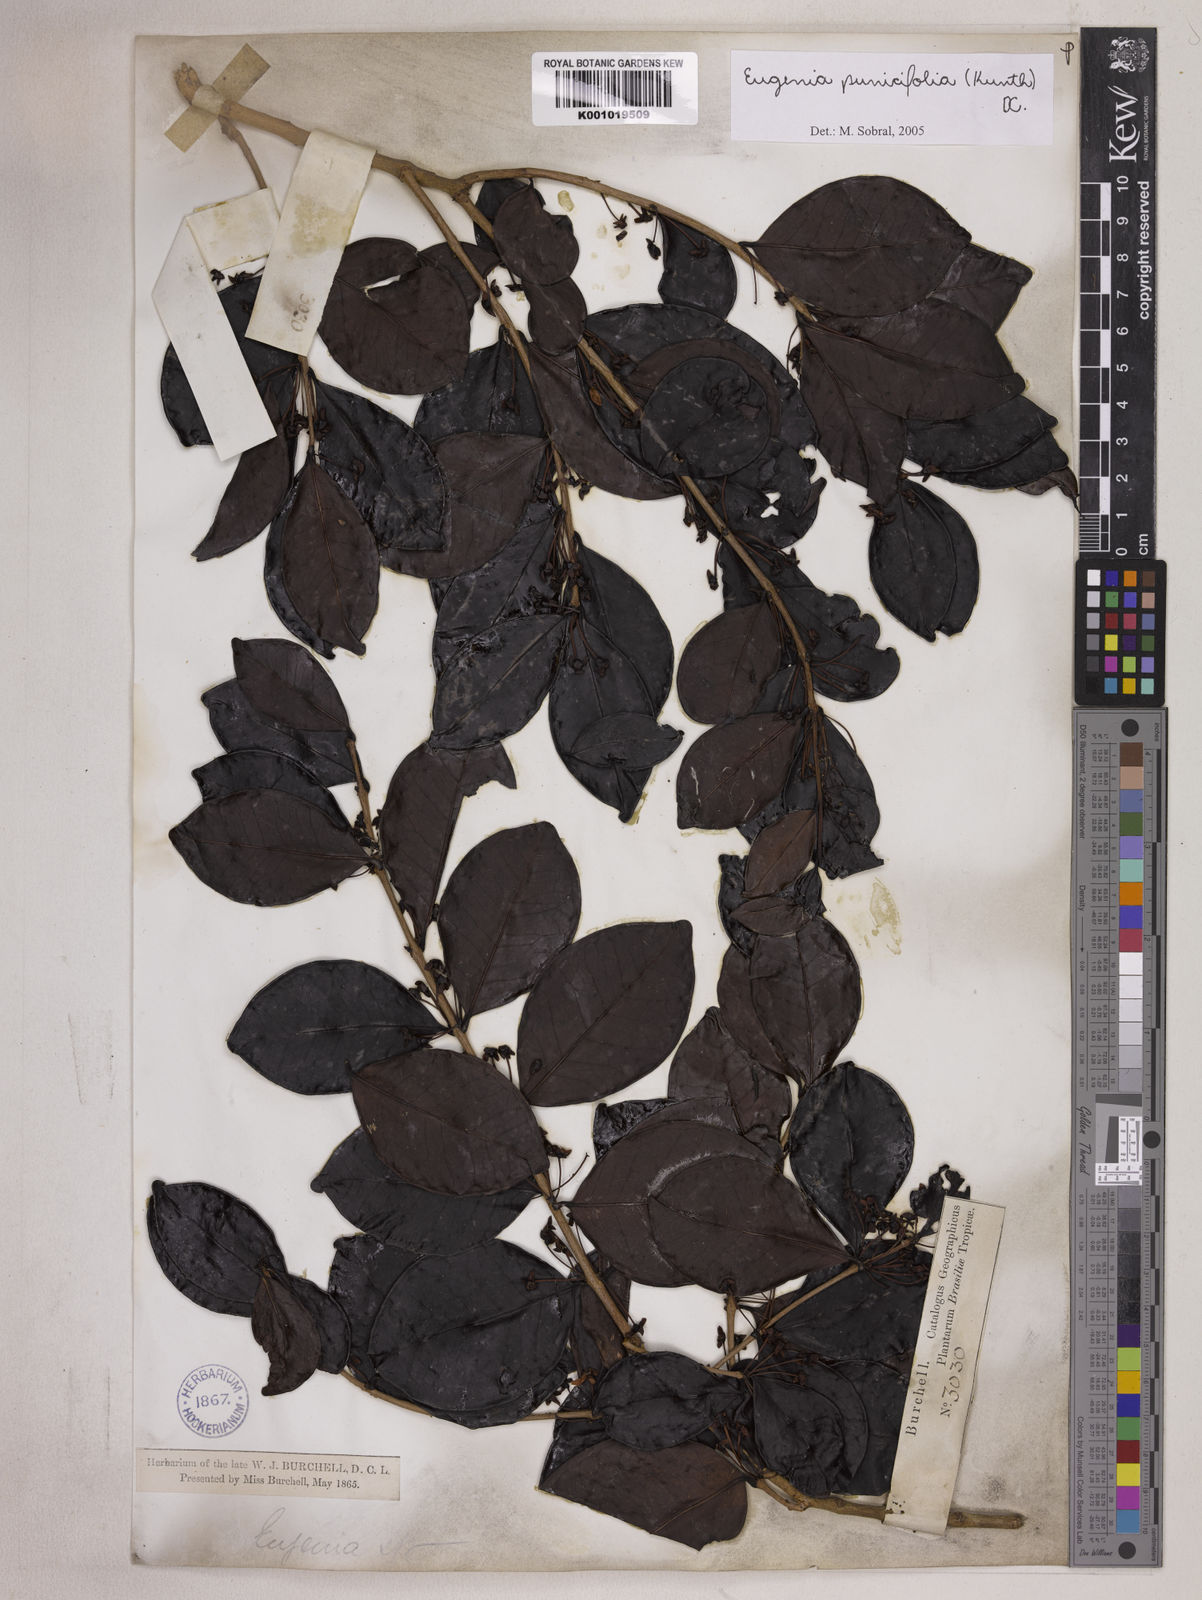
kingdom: Plantae
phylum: Tracheophyta
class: Magnoliopsida
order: Myrtales
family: Myrtaceae
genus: Eugenia
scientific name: Eugenia punicifolia
